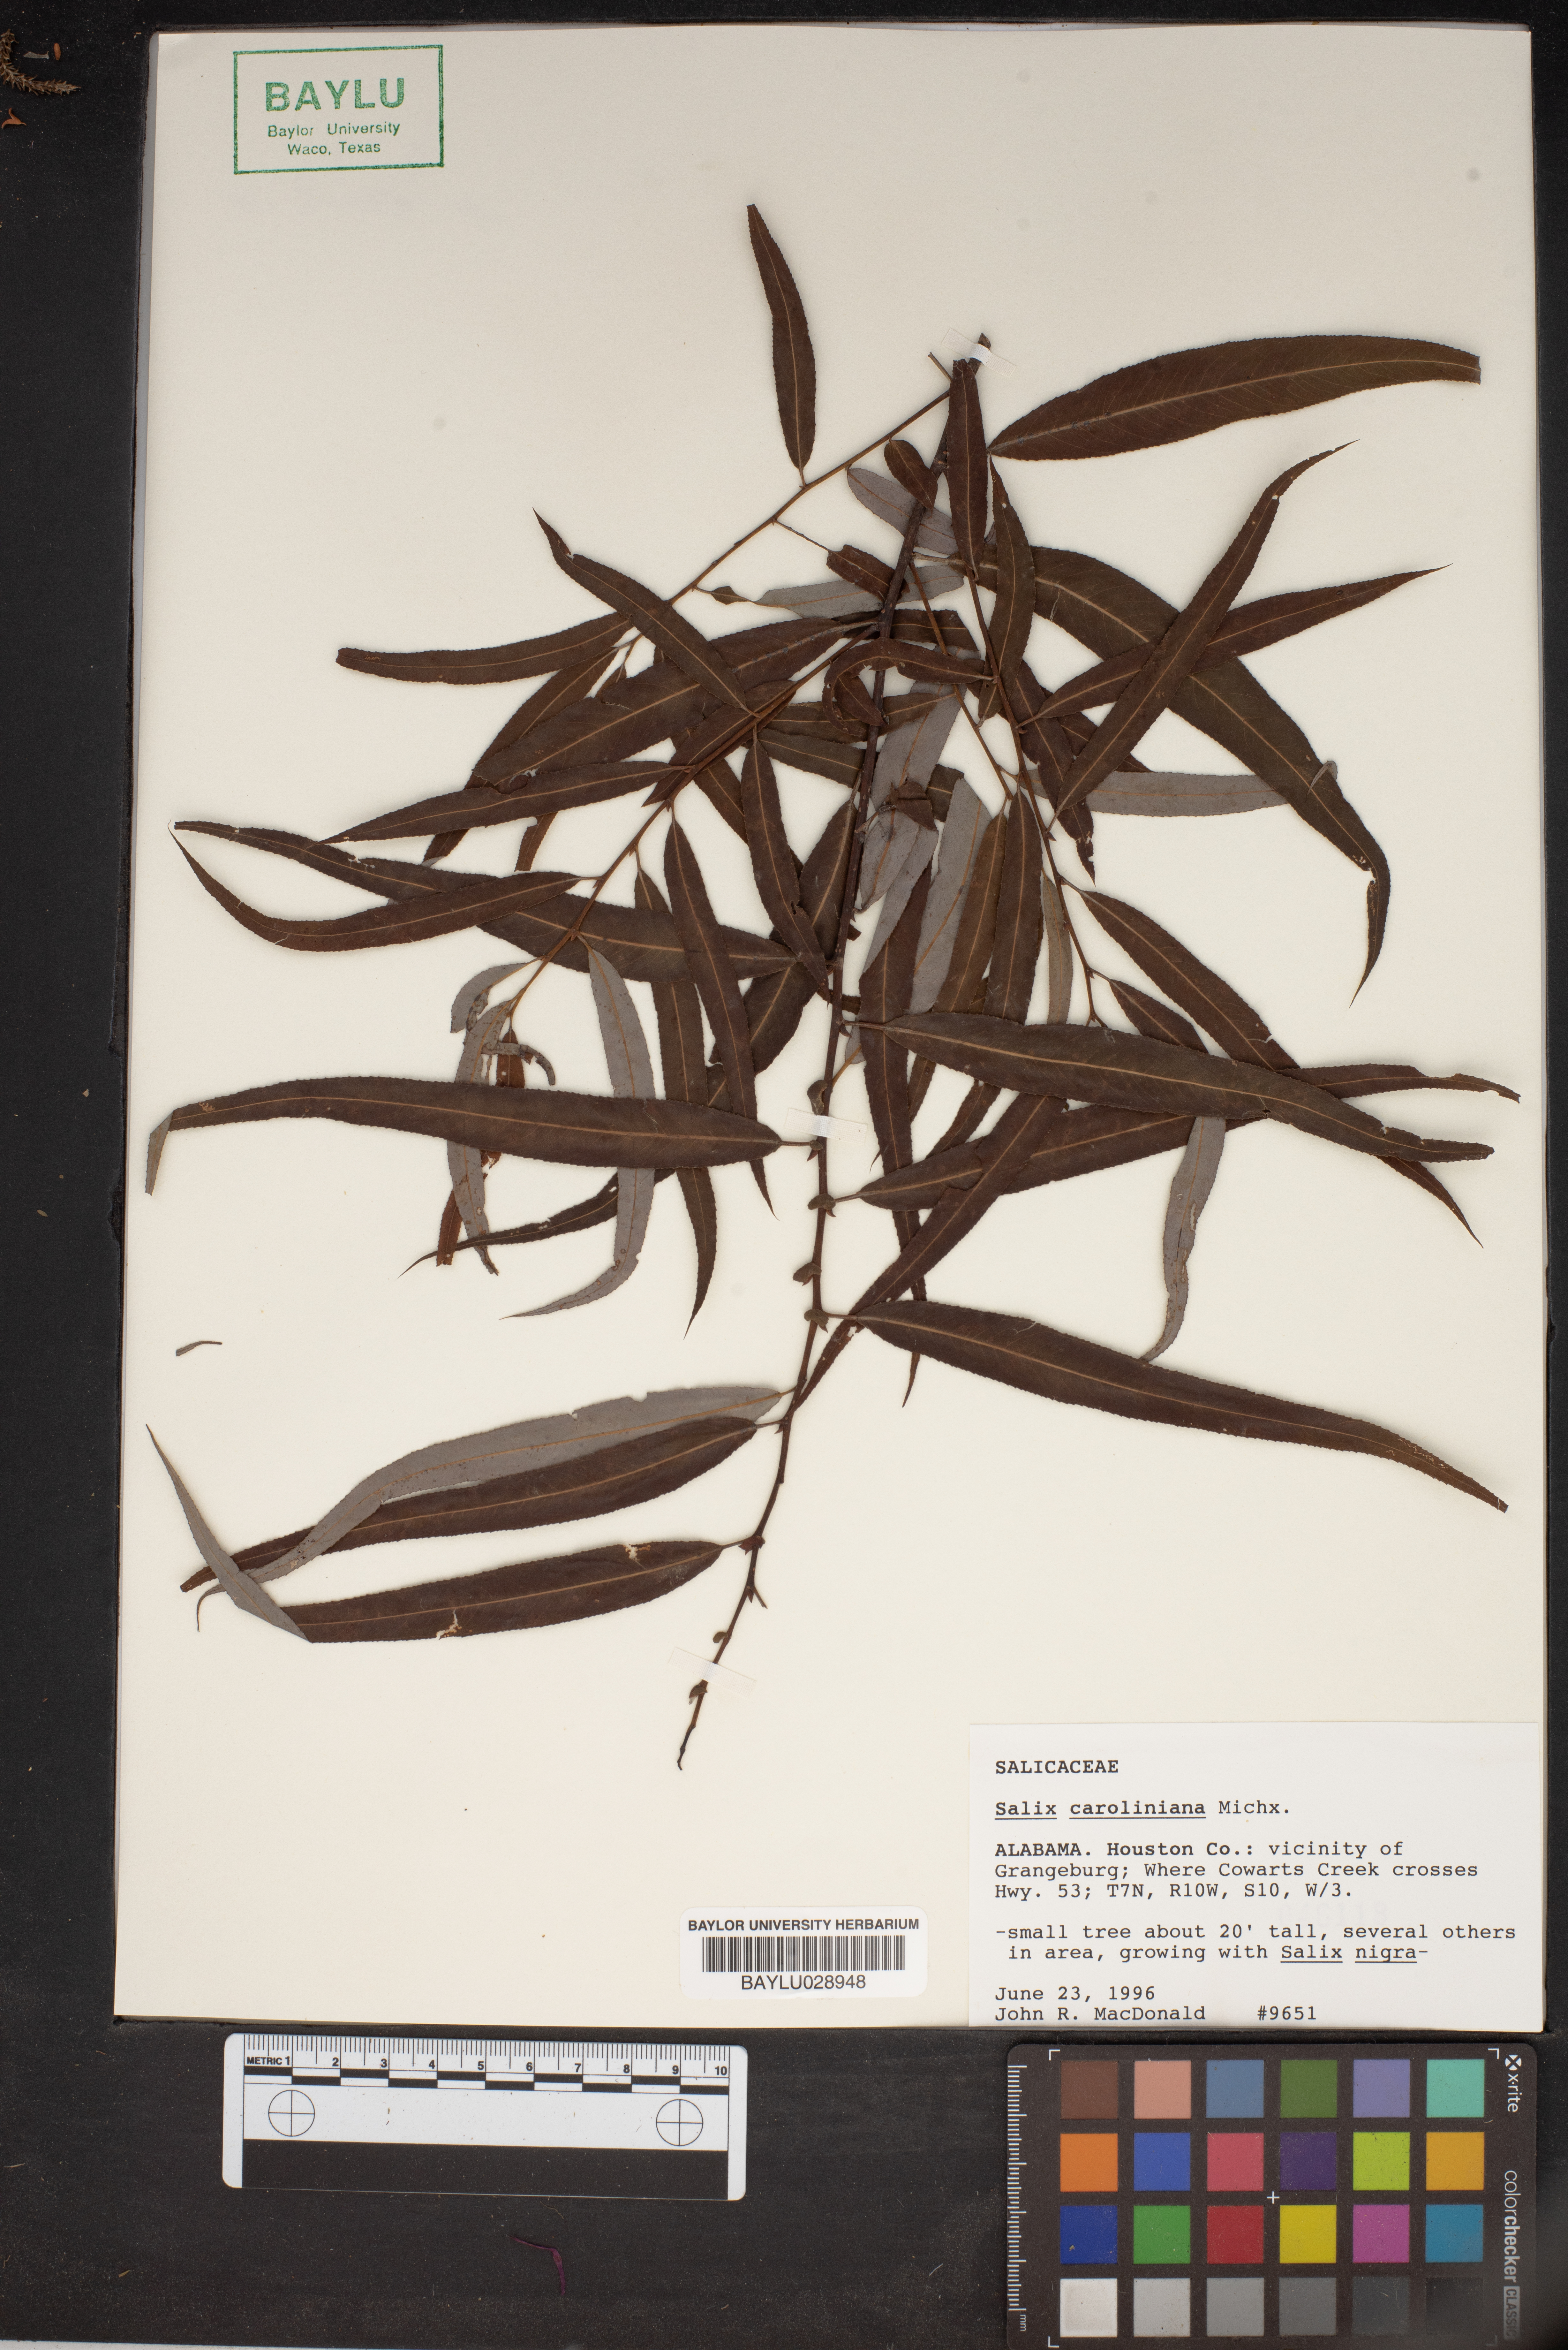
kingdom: Plantae
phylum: Tracheophyta
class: Magnoliopsida
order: Malpighiales
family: Salicaceae
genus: Salix
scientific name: Salix caroliniana
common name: Carolina willow
